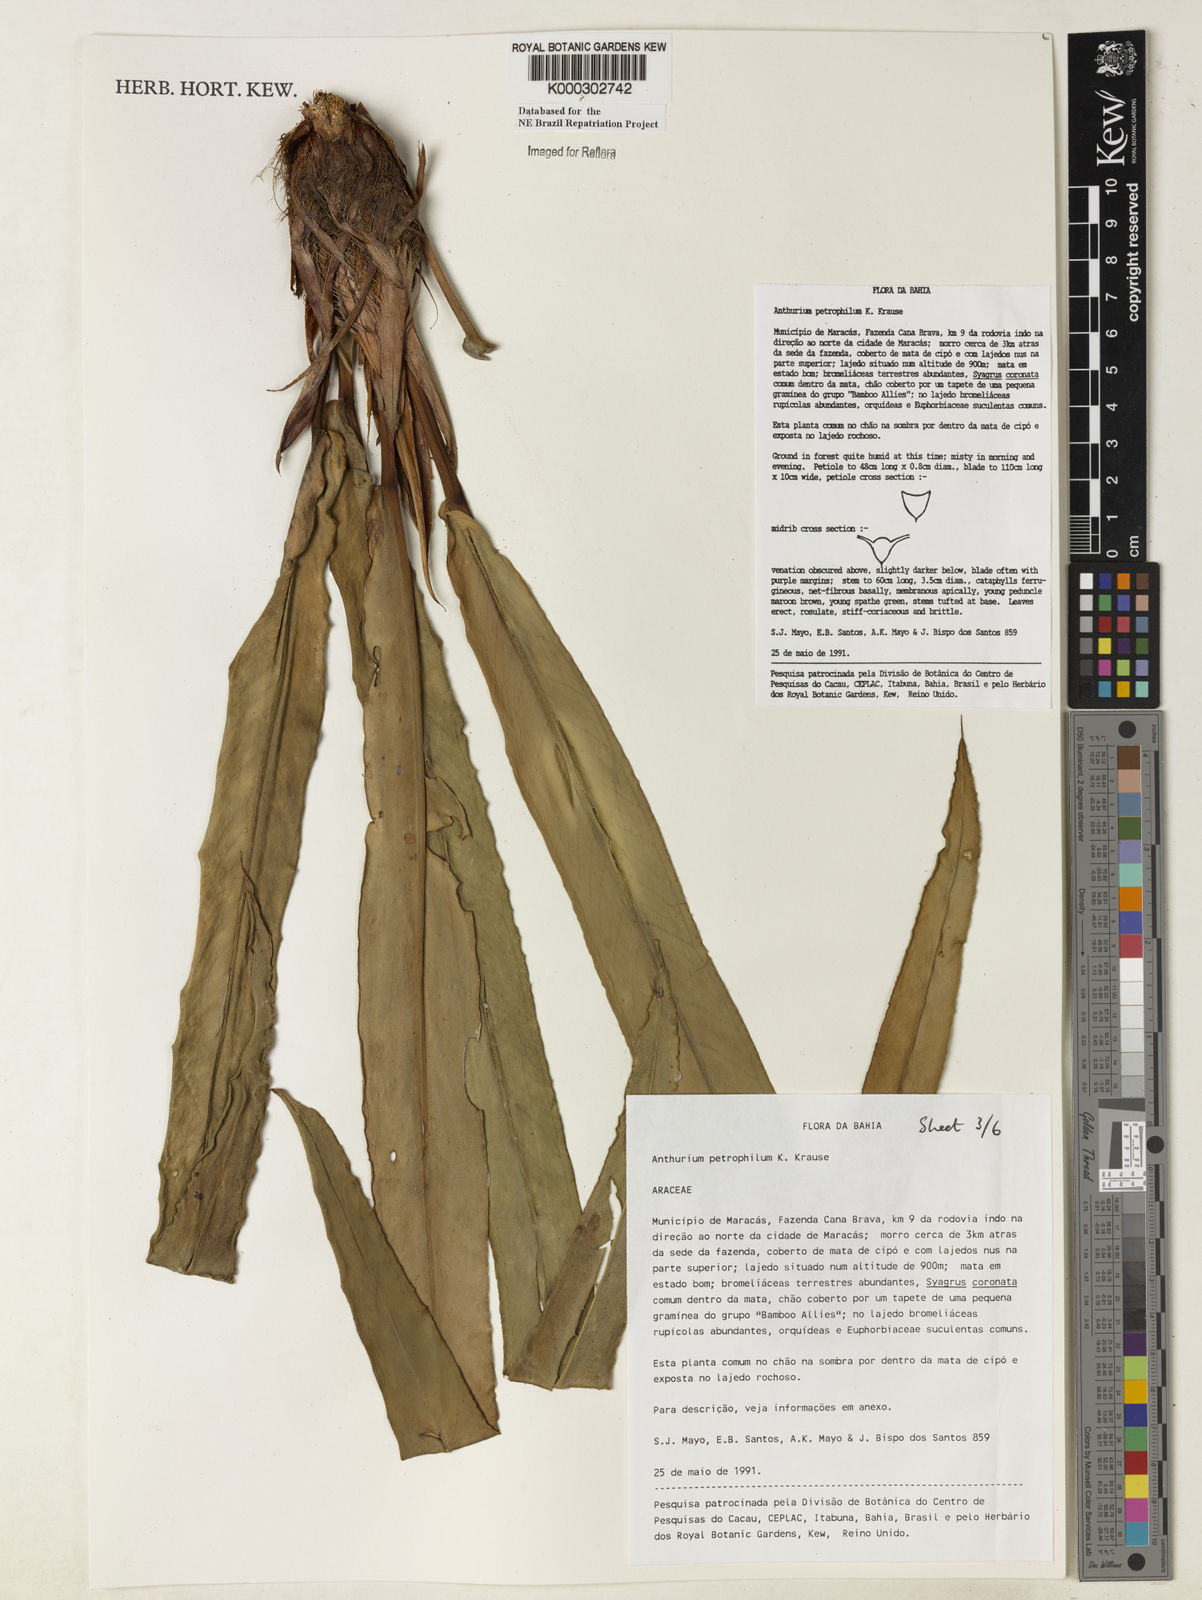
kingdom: Plantae
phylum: Tracheophyta
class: Liliopsida
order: Alismatales
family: Araceae
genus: Anthurium
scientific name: Anthurium petrophilum
